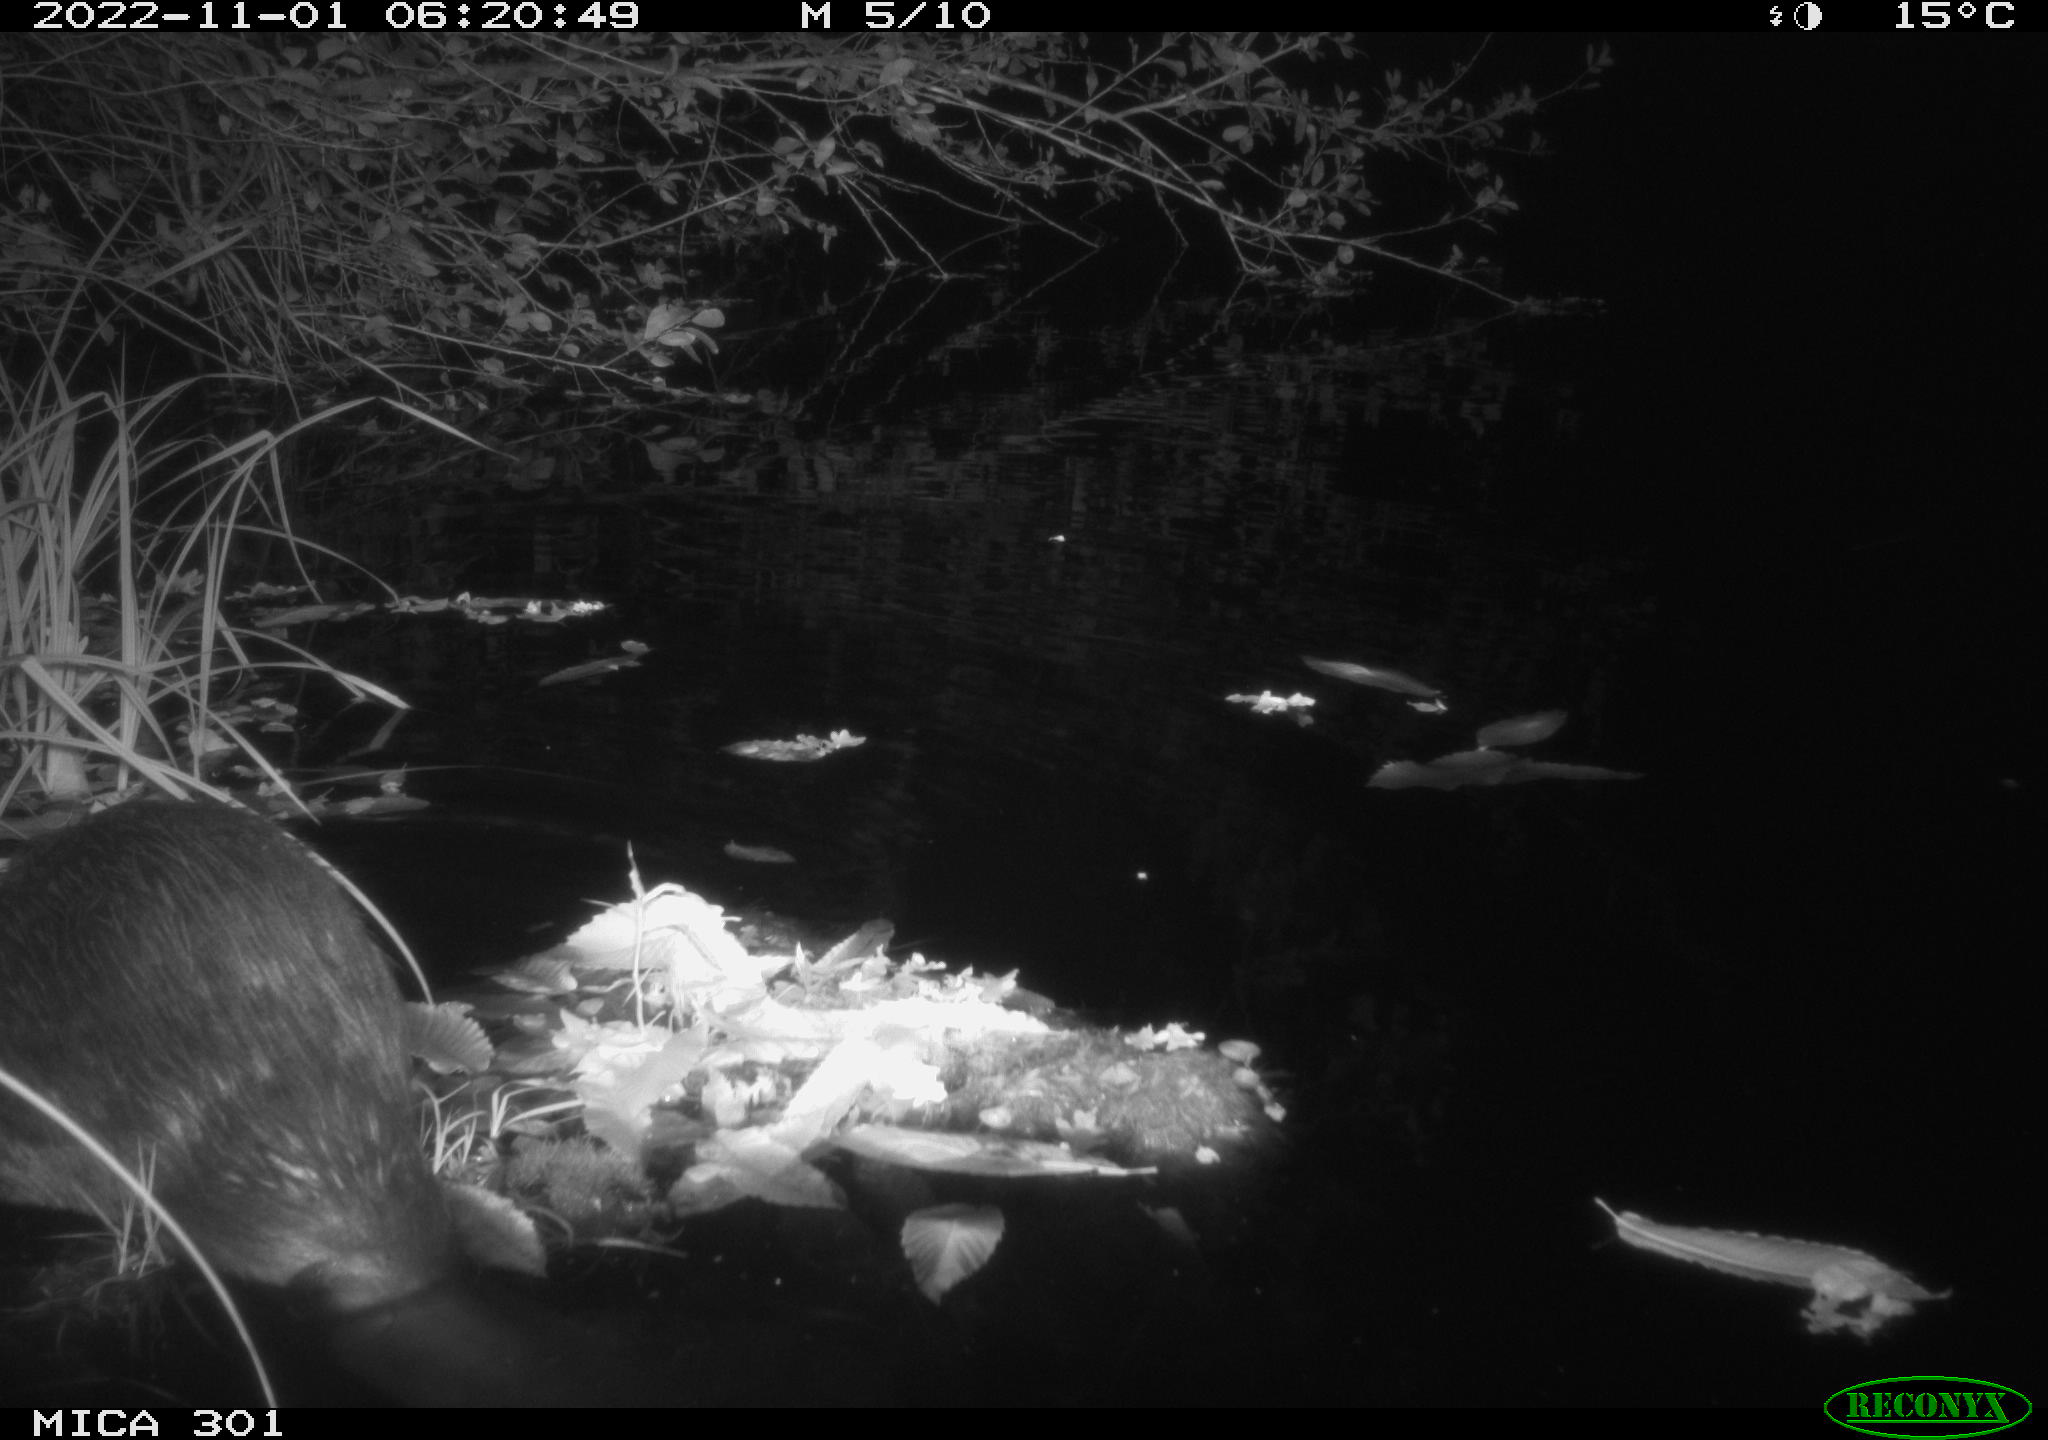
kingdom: Animalia
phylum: Chordata
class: Mammalia
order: Rodentia
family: Castoridae
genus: Castor
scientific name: Castor fiber
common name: Eurasian beaver
